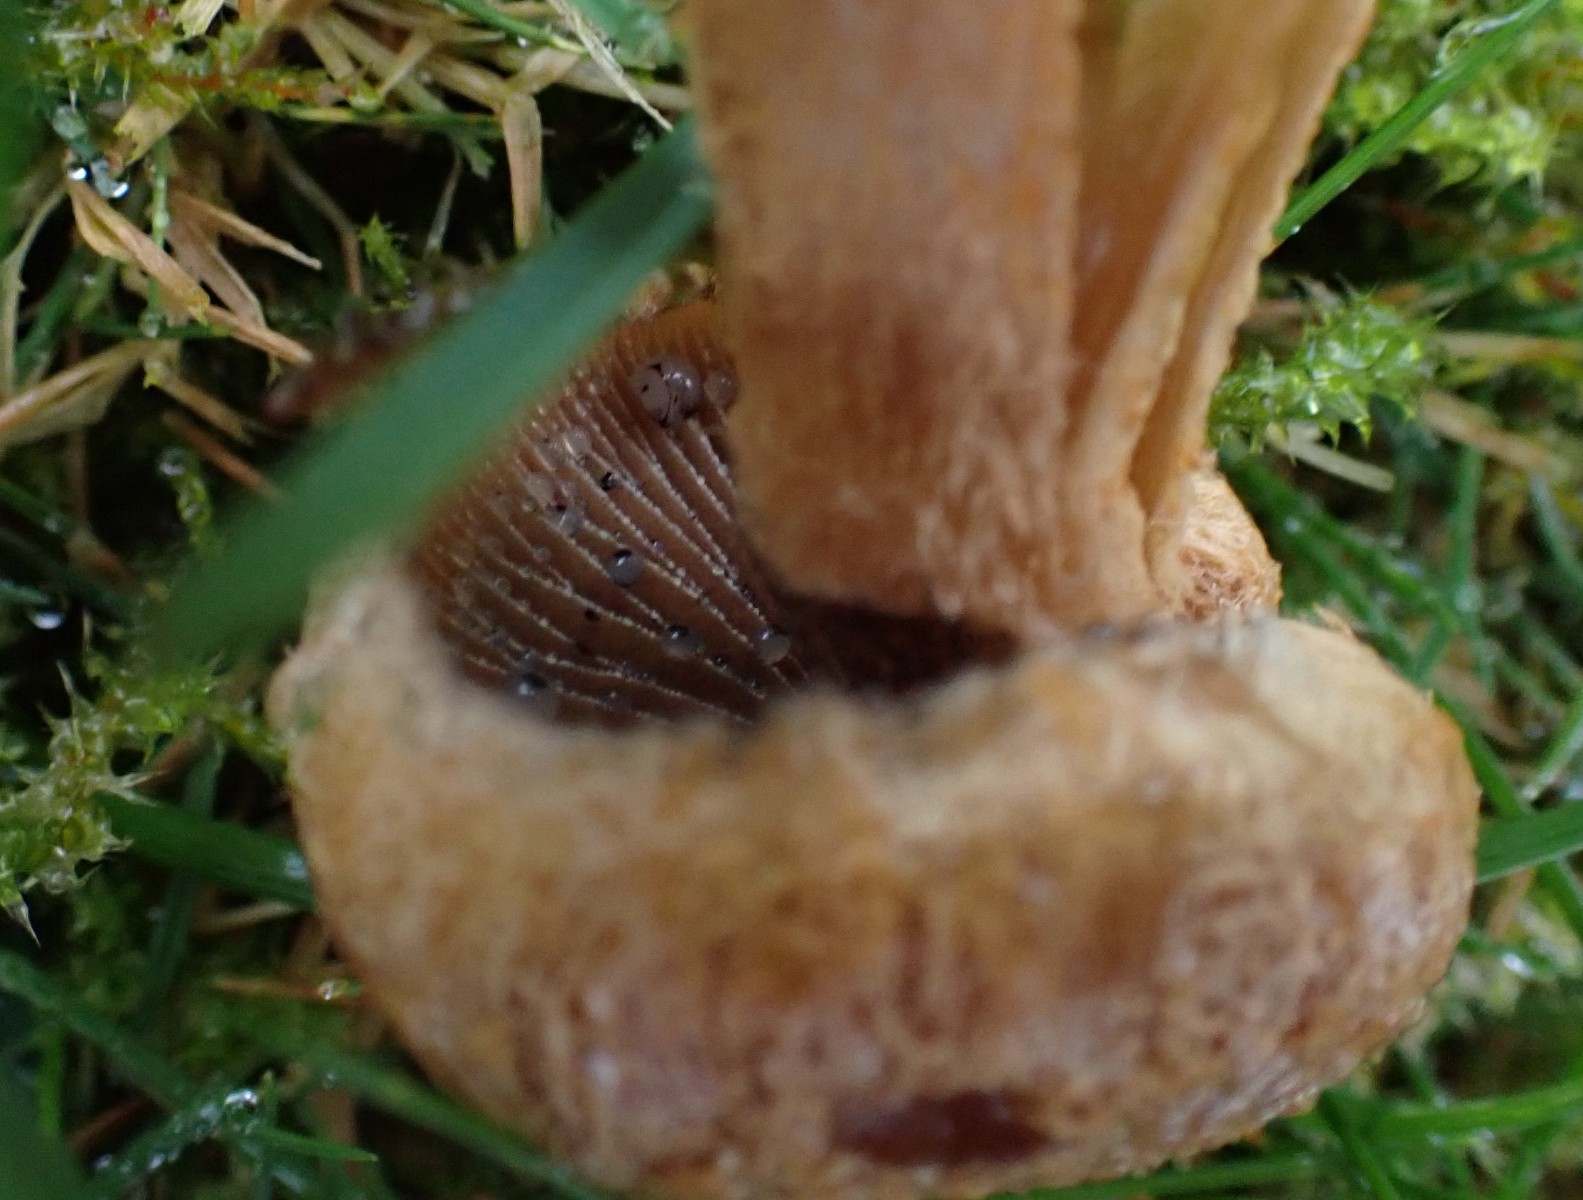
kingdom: Fungi
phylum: Basidiomycota
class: Agaricomycetes
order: Agaricales
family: Psathyrellaceae
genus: Lacrymaria
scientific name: Lacrymaria lacrymabunda
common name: grædende mørkhat
